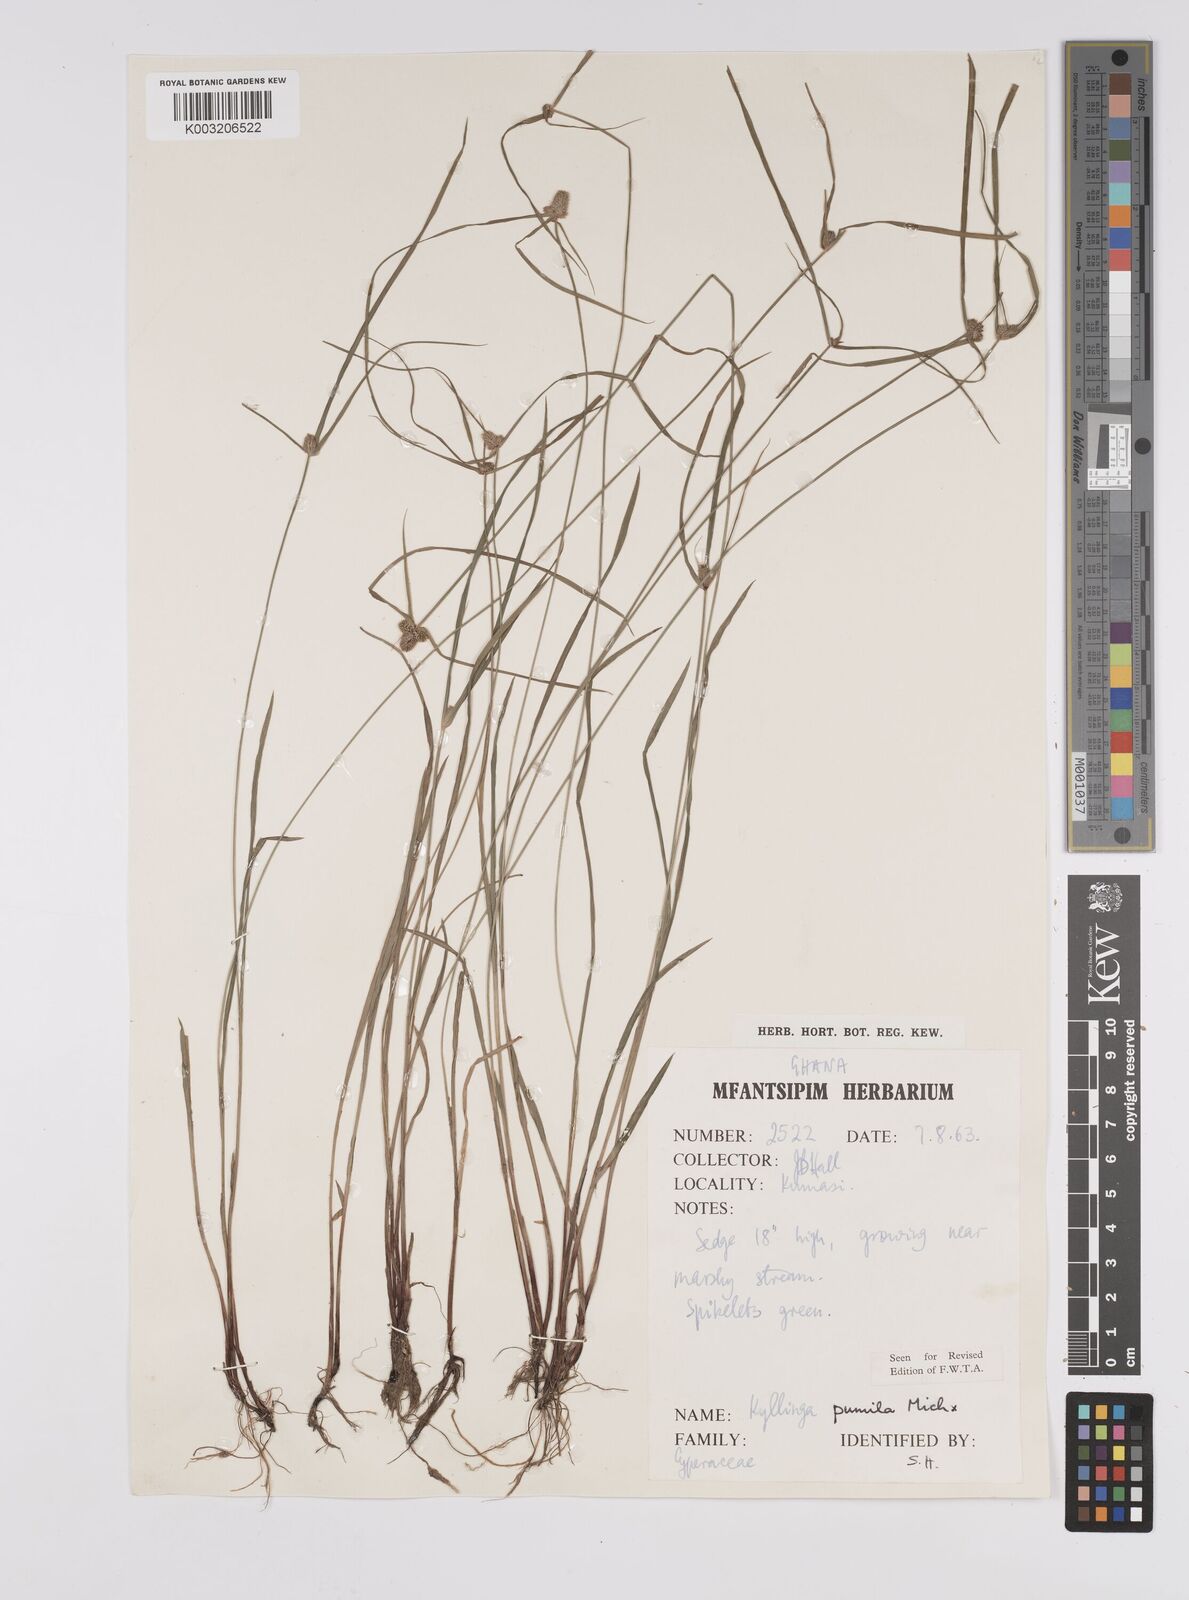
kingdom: Plantae
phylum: Tracheophyta
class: Liliopsida
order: Poales
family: Cyperaceae
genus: Cyperus
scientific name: Cyperus
